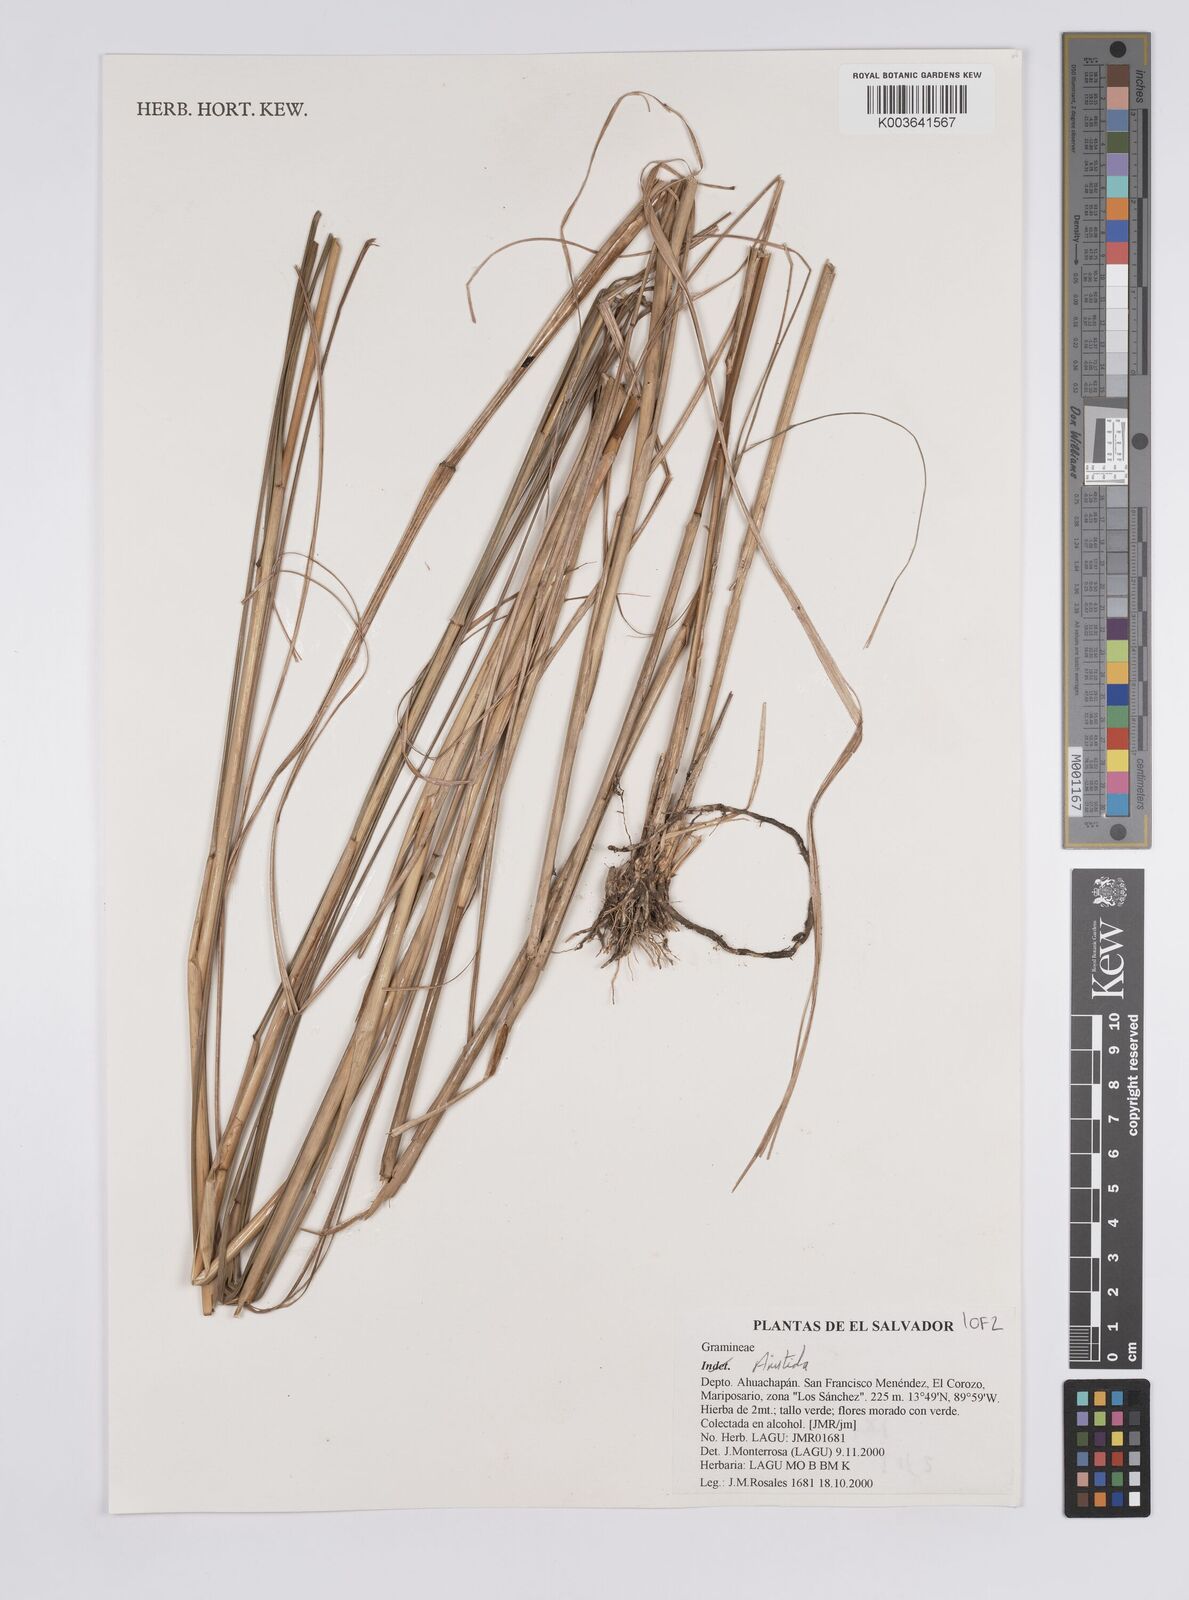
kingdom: Plantae
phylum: Tracheophyta
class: Liliopsida
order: Poales
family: Poaceae
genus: Aristida
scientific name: Aristida
